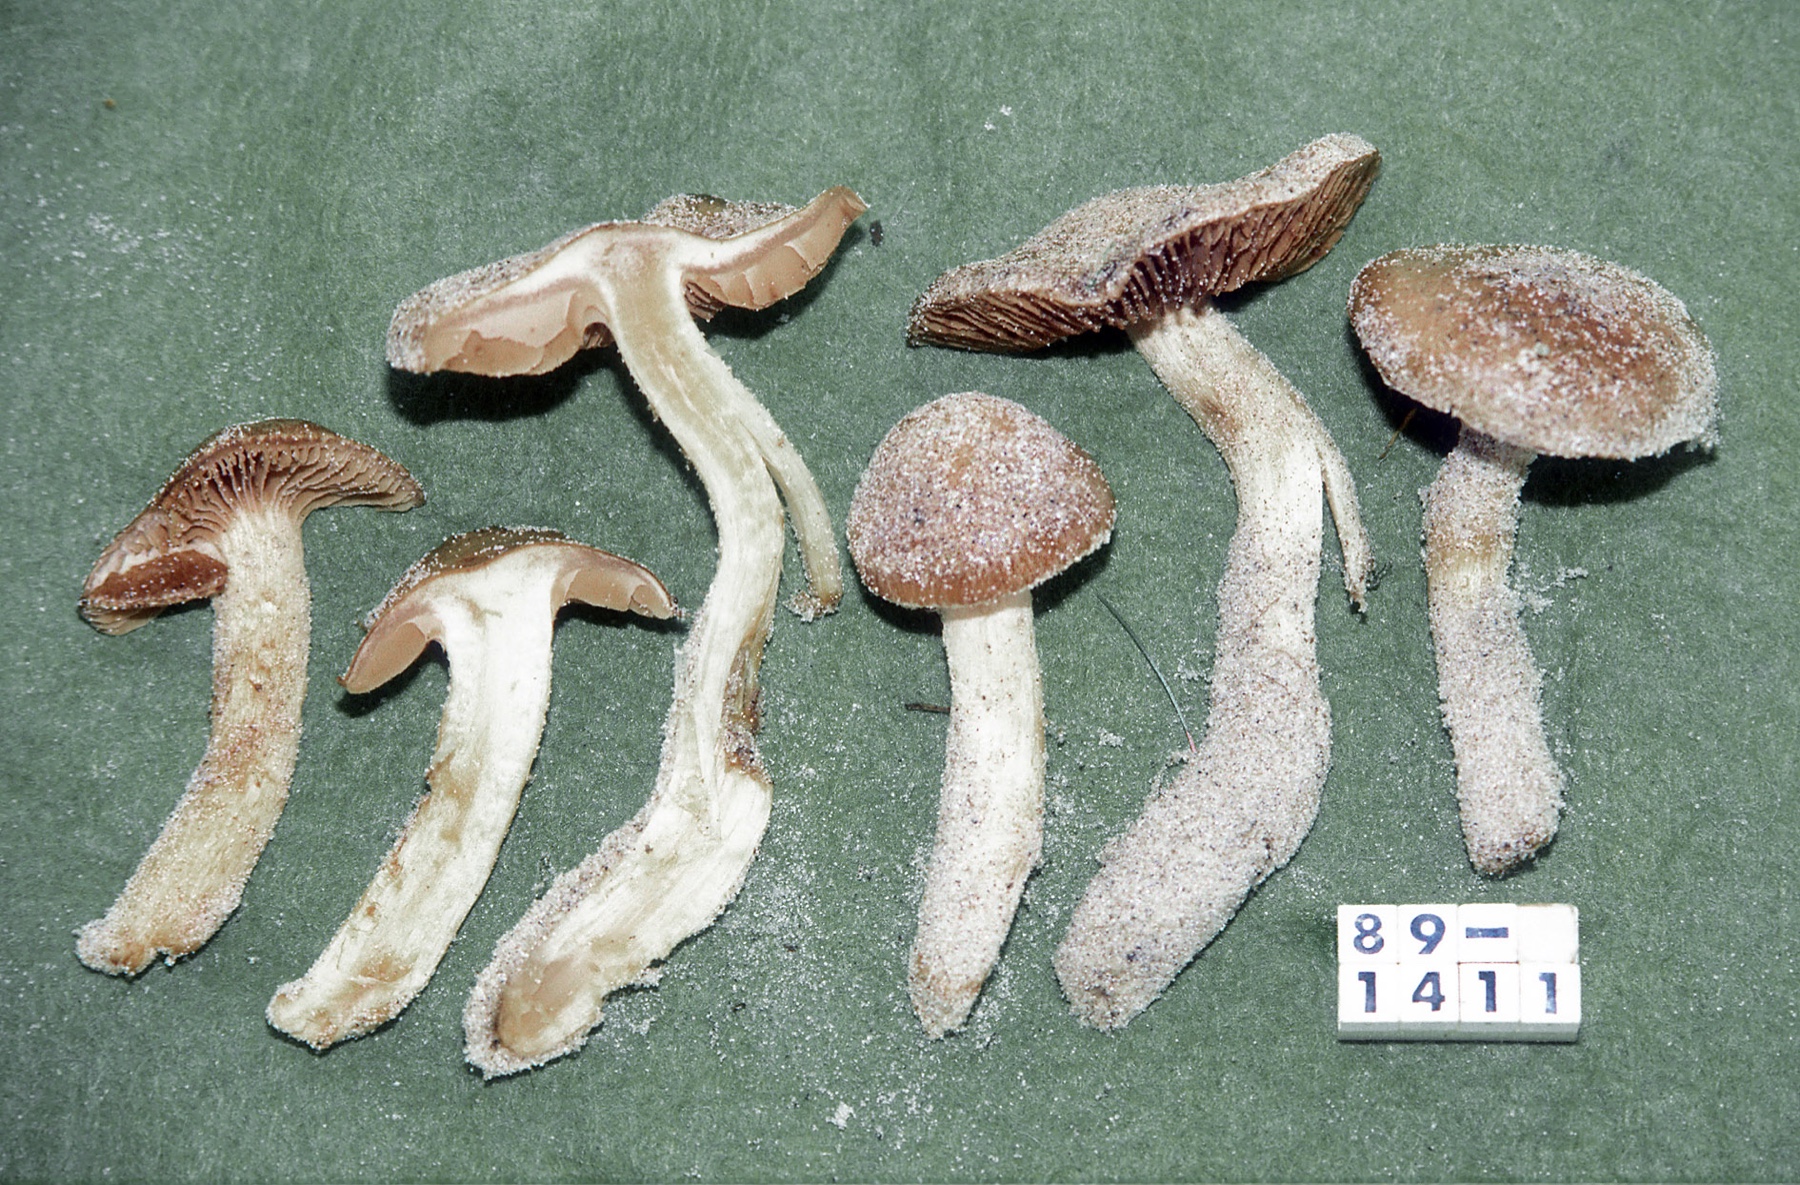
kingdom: Fungi
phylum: Basidiomycota
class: Agaricomycetes
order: Agaricales
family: Hymenogastraceae
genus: Hebeloma
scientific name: Hebeloma psammophilum
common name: klit-tåreblad
